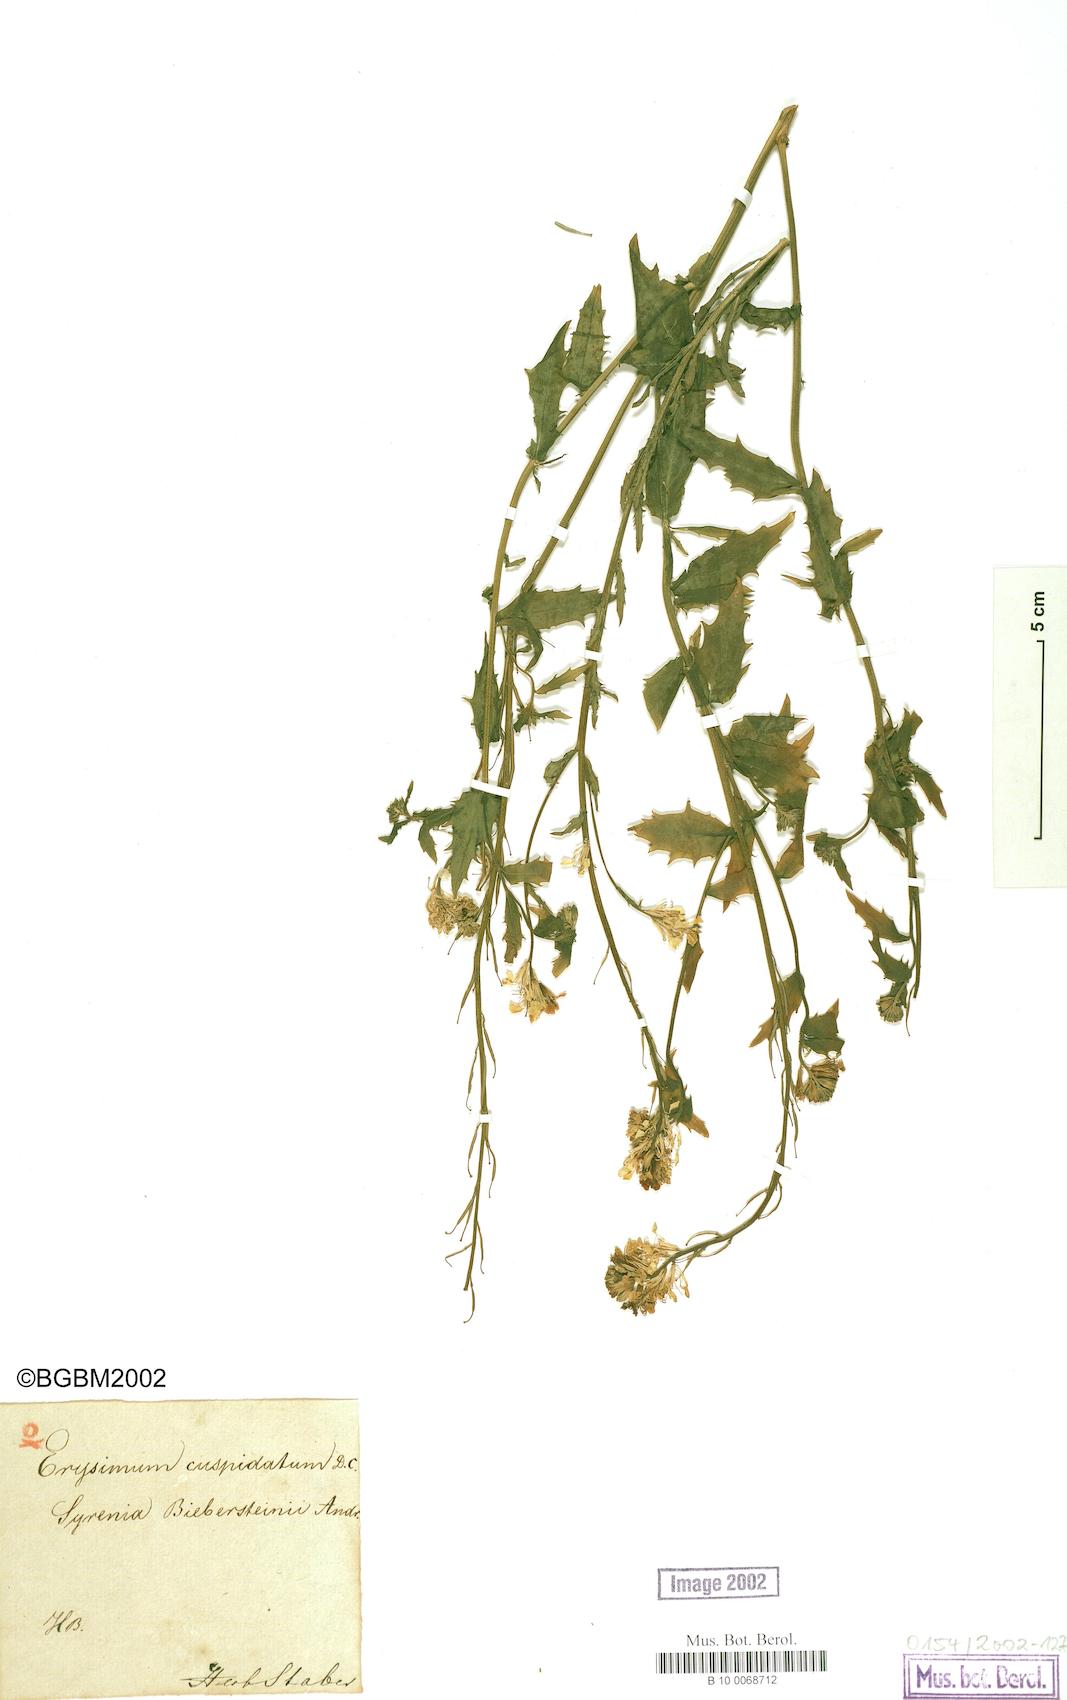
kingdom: Plantae
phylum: Tracheophyta
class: Magnoliopsida
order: Brassicales
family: Brassicaceae
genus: Erysimum
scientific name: Erysimum cuspidatum
